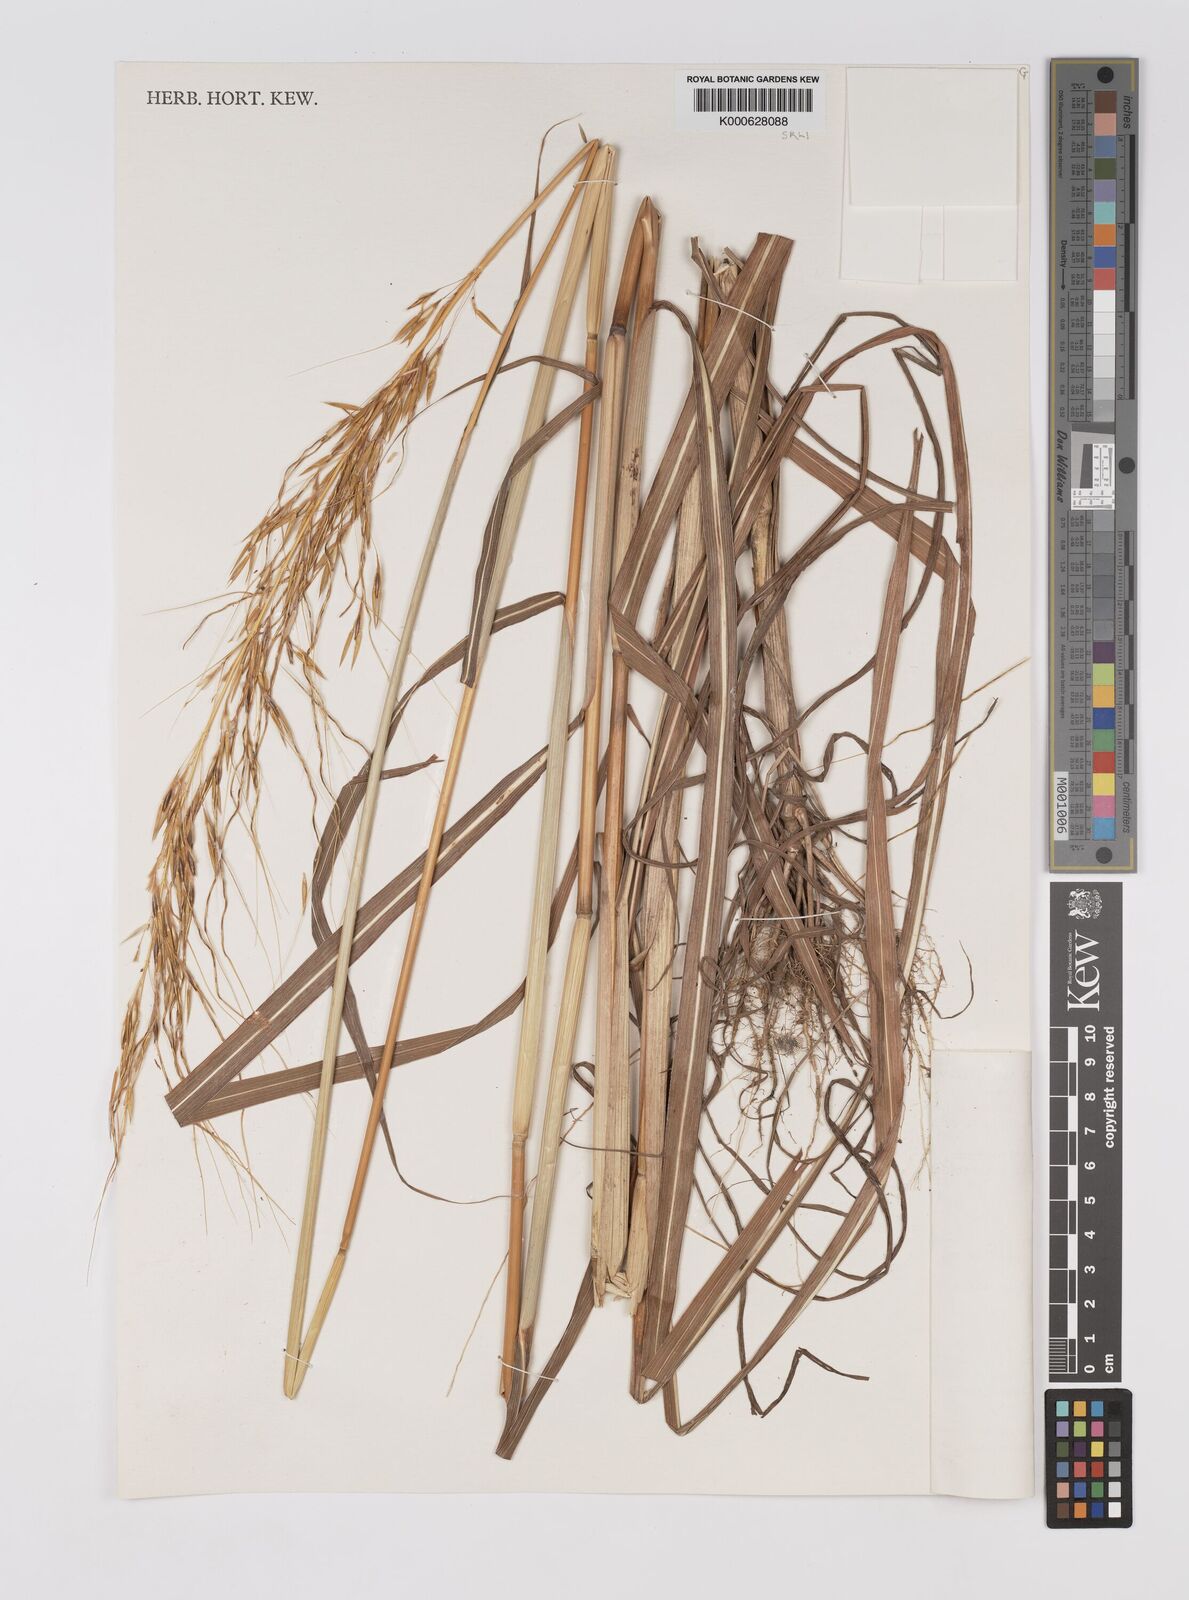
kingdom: Plantae
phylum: Tracheophyta
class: Liliopsida
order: Poales
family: Poaceae
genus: Sarga
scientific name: Sarga stipoidea
